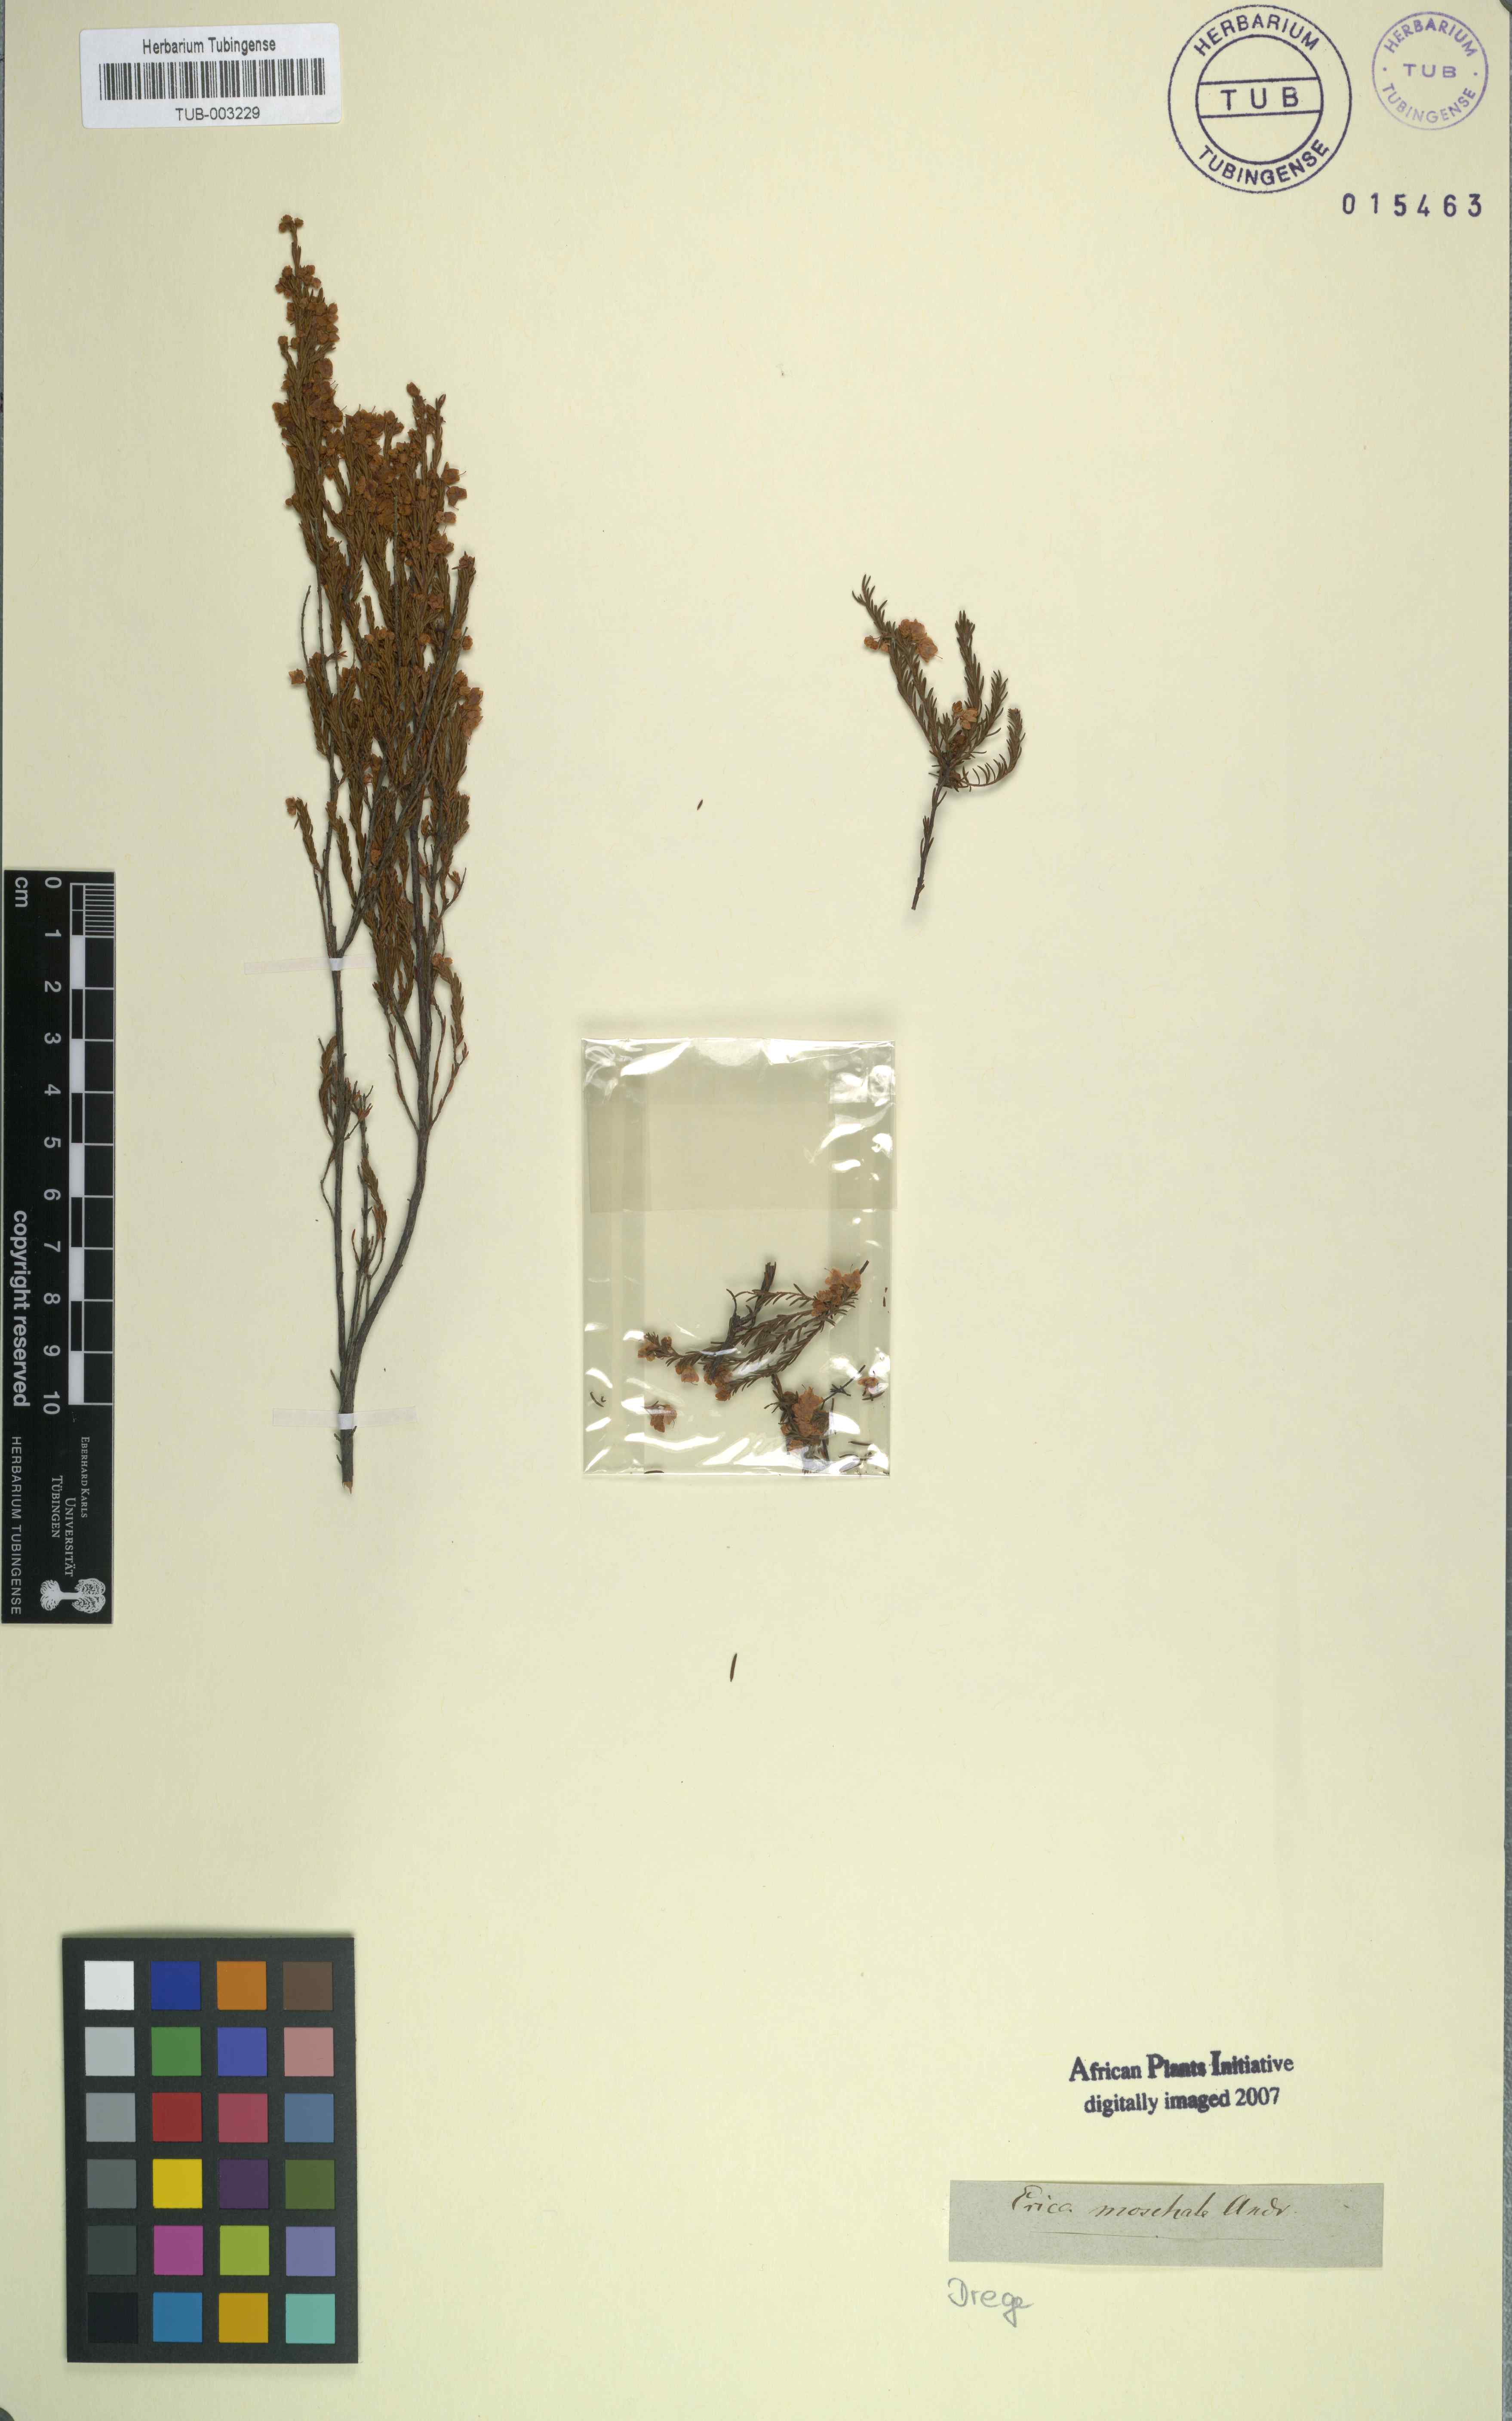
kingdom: Plantae
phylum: Tracheophyta
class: Magnoliopsida
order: Ericales
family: Ericaceae
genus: Erica
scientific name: Erica cristiflora
